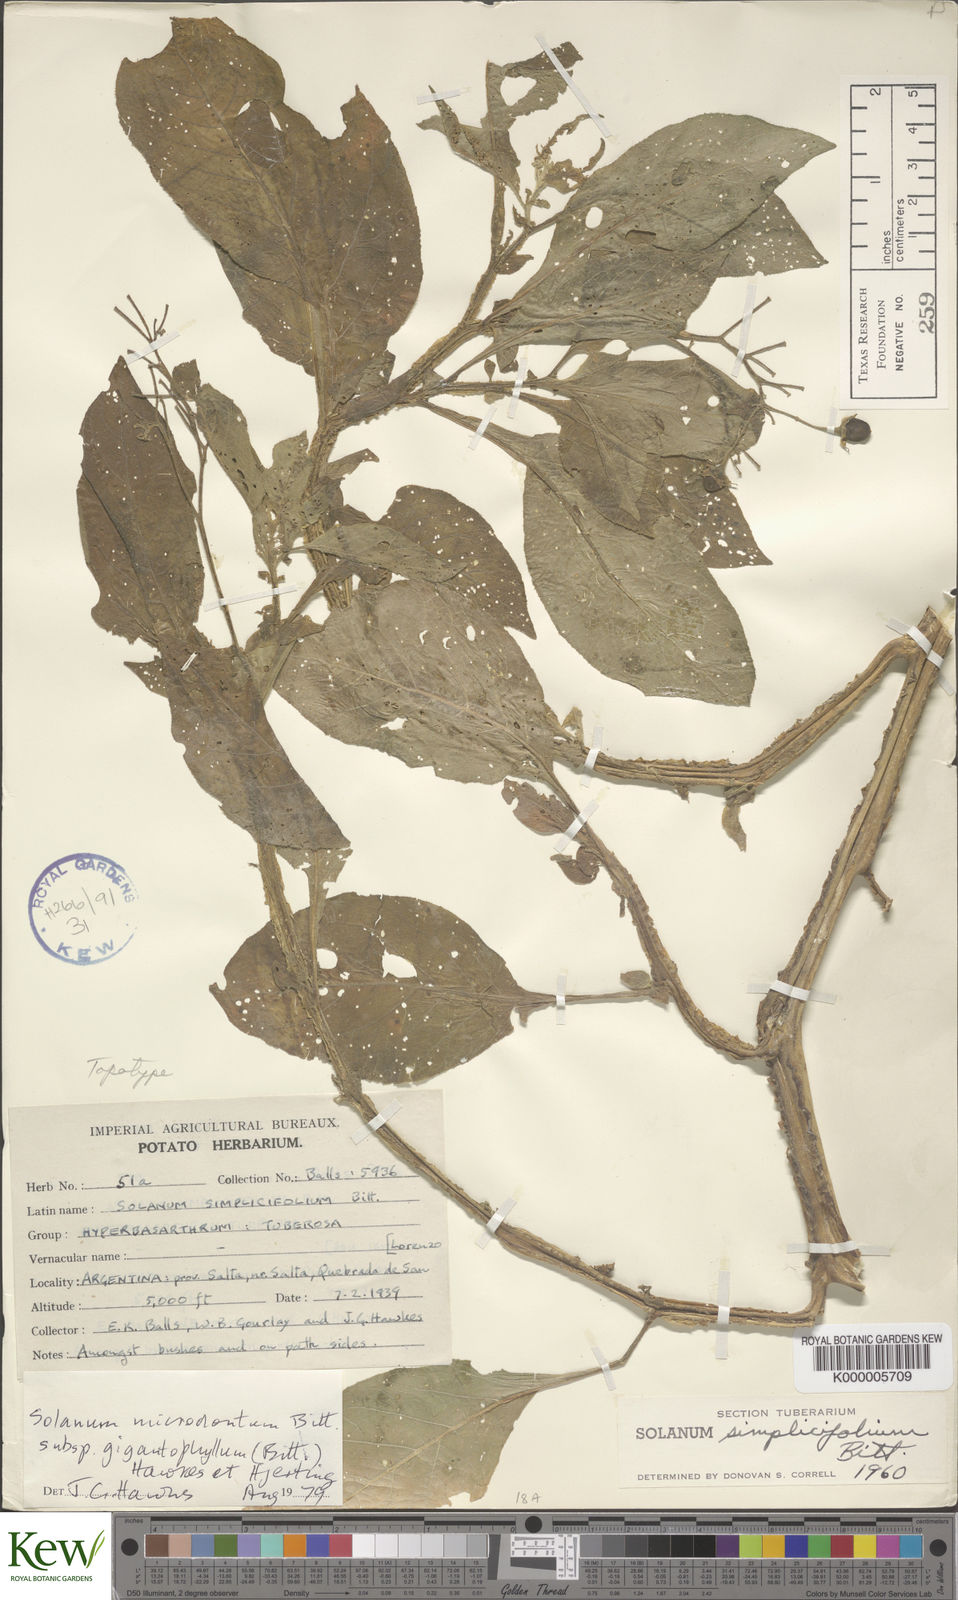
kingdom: Plantae
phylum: Tracheophyta
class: Magnoliopsida
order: Solanales
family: Solanaceae
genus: Solanum
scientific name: Solanum microdontum
